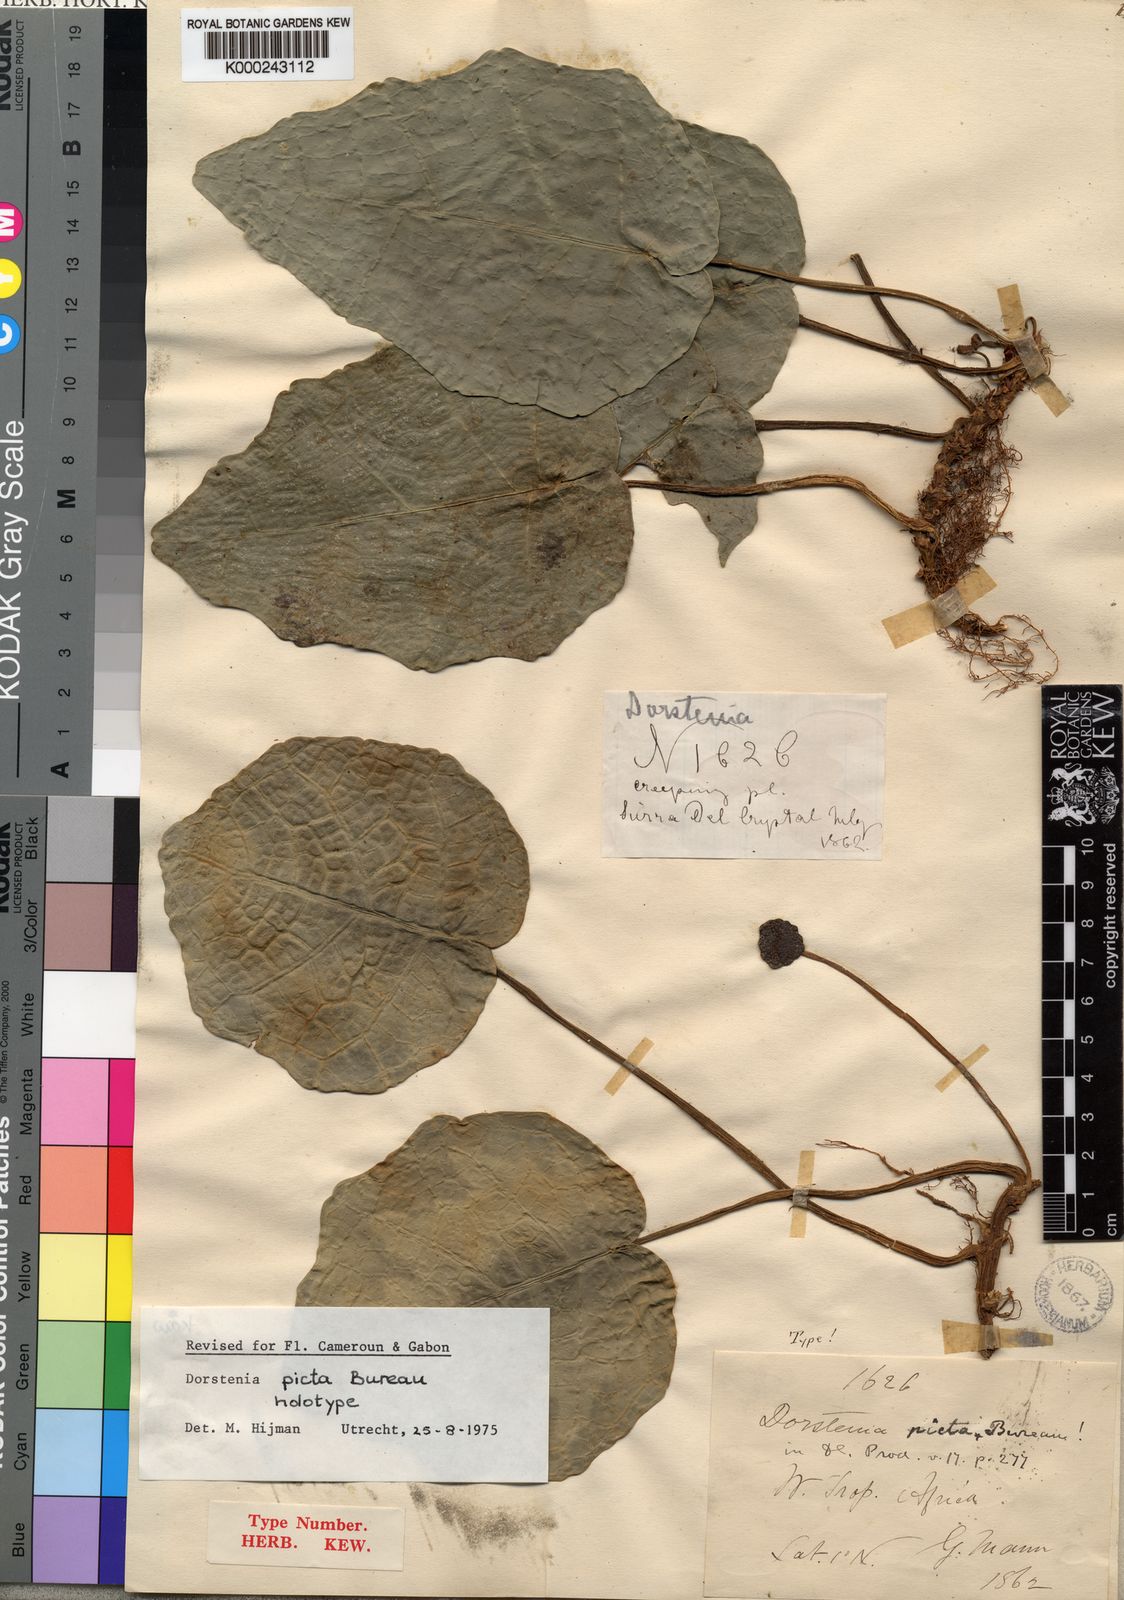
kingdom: Plantae
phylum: Tracheophyta
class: Magnoliopsida
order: Rosales
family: Moraceae
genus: Dorstenia
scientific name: Dorstenia
